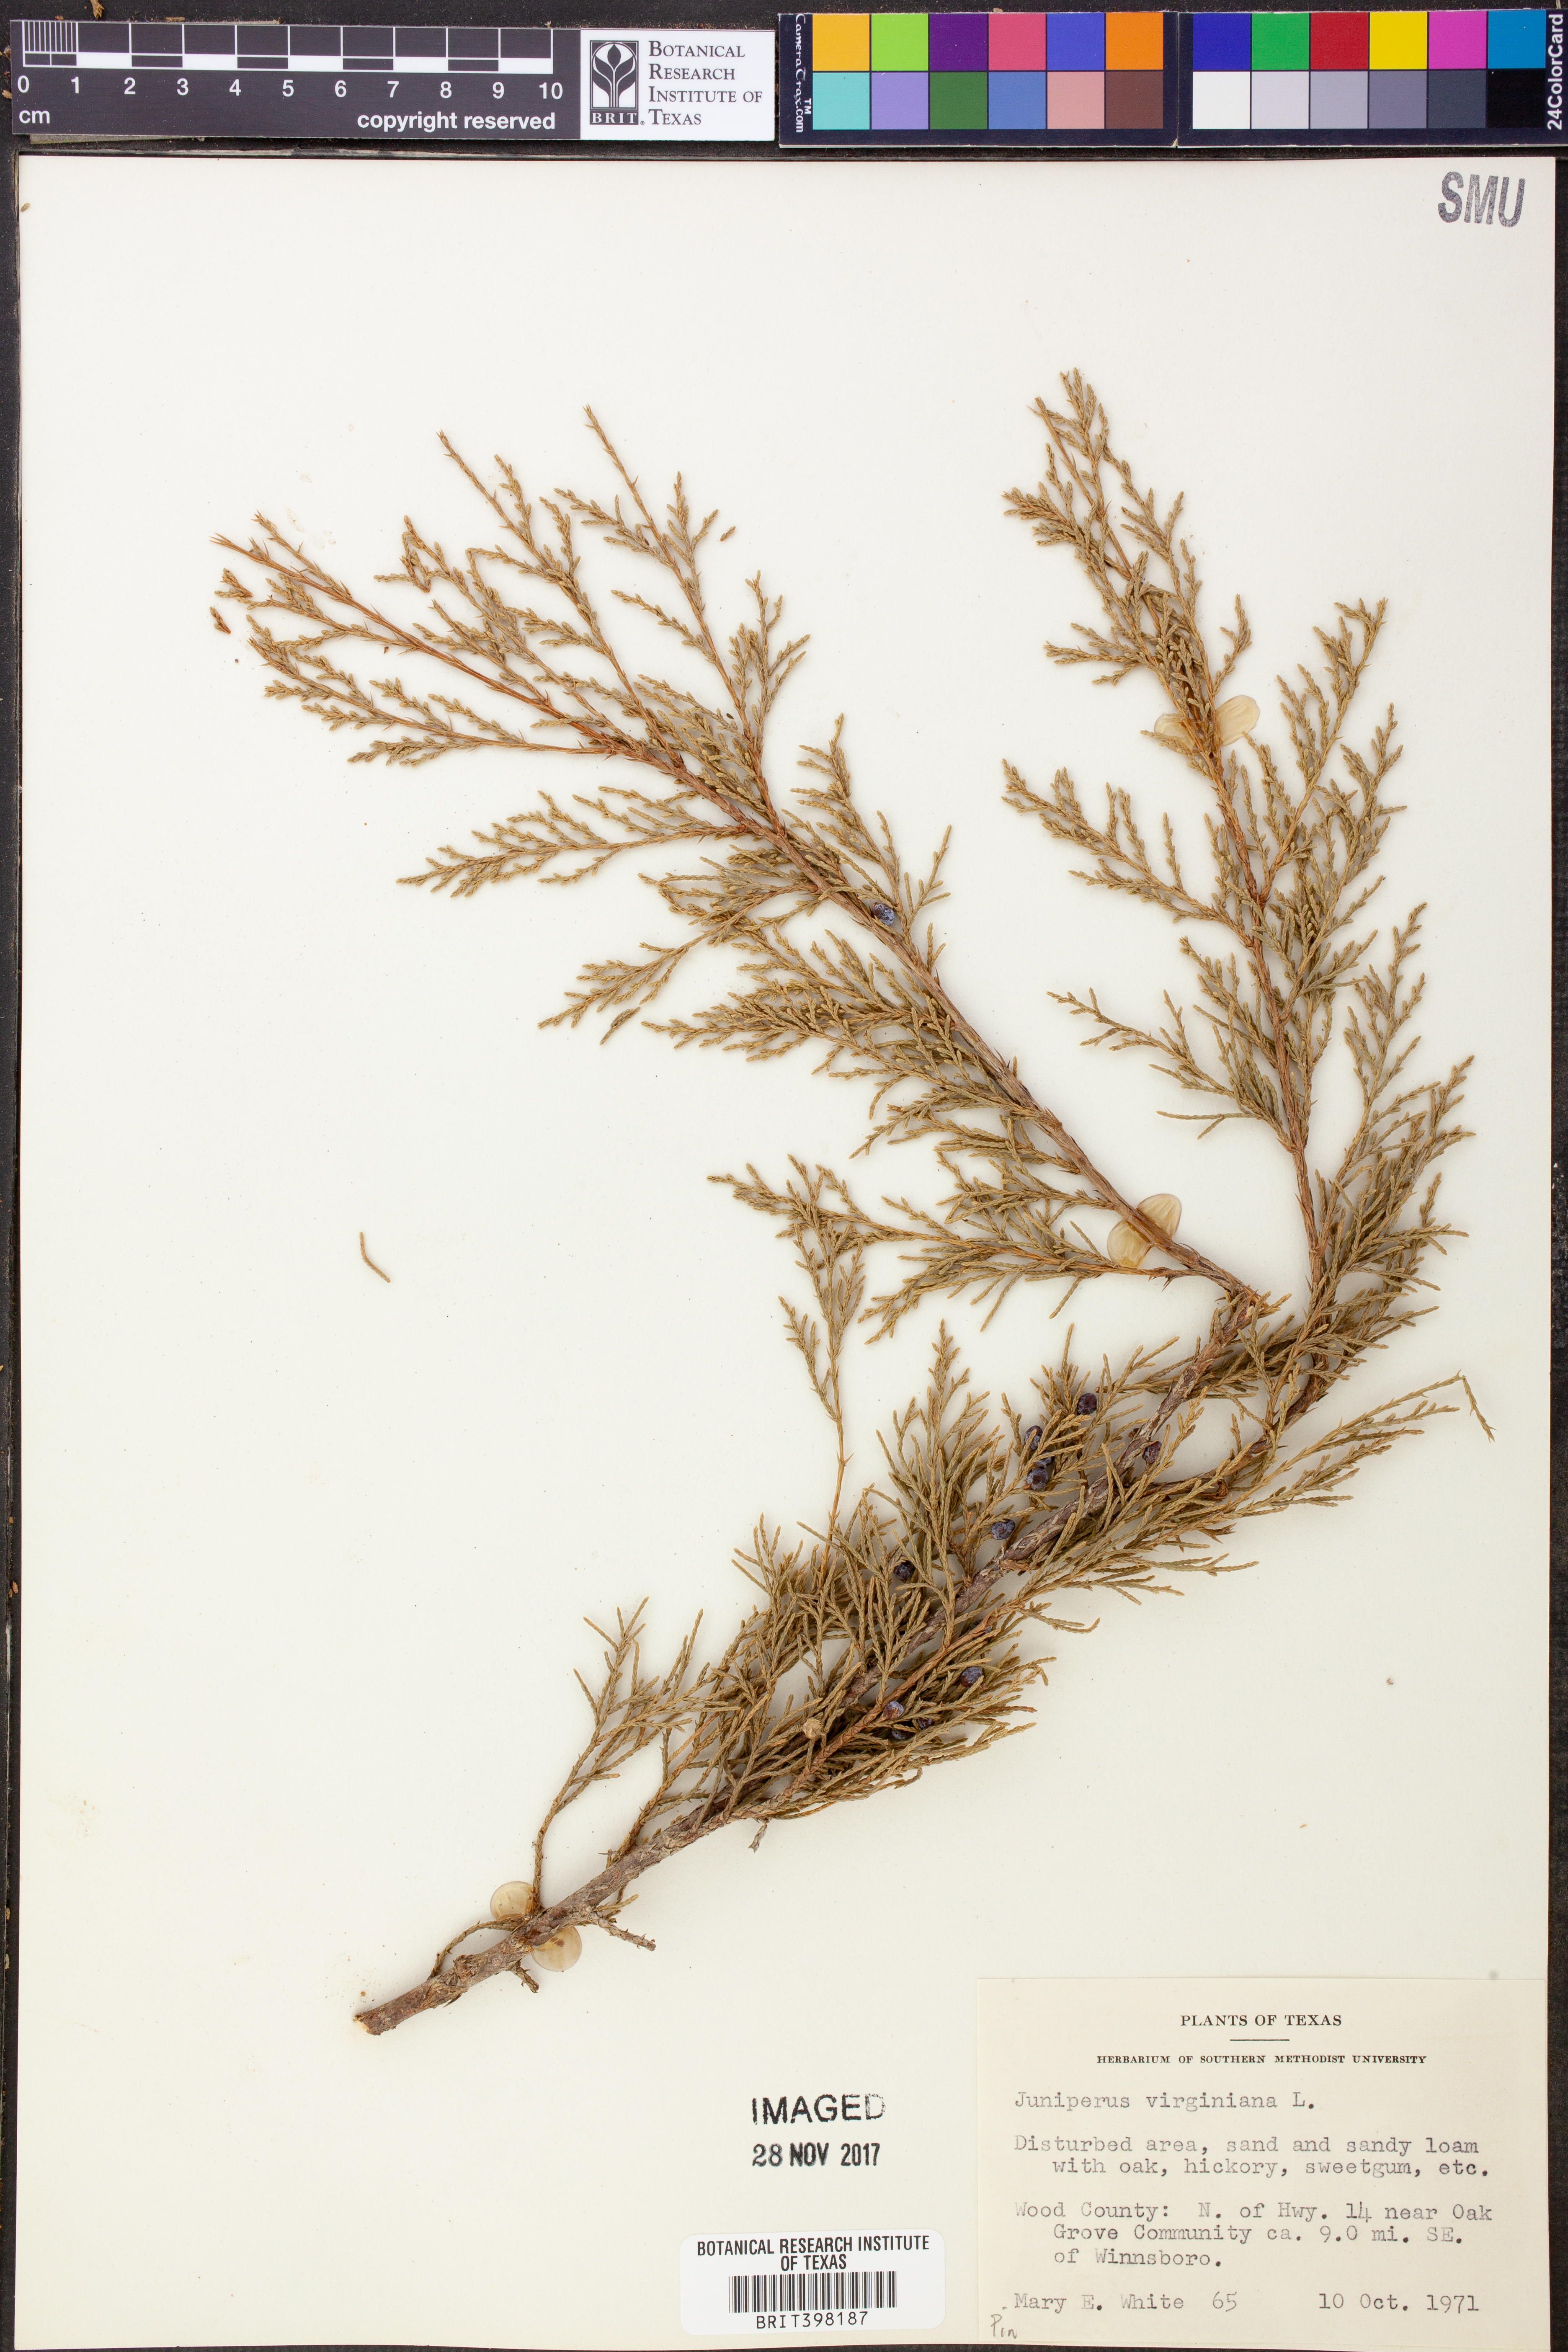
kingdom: Plantae
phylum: Tracheophyta
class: Pinopsida
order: Pinales
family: Cupressaceae
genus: Juniperus
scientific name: Juniperus virginiana
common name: Red juniper
